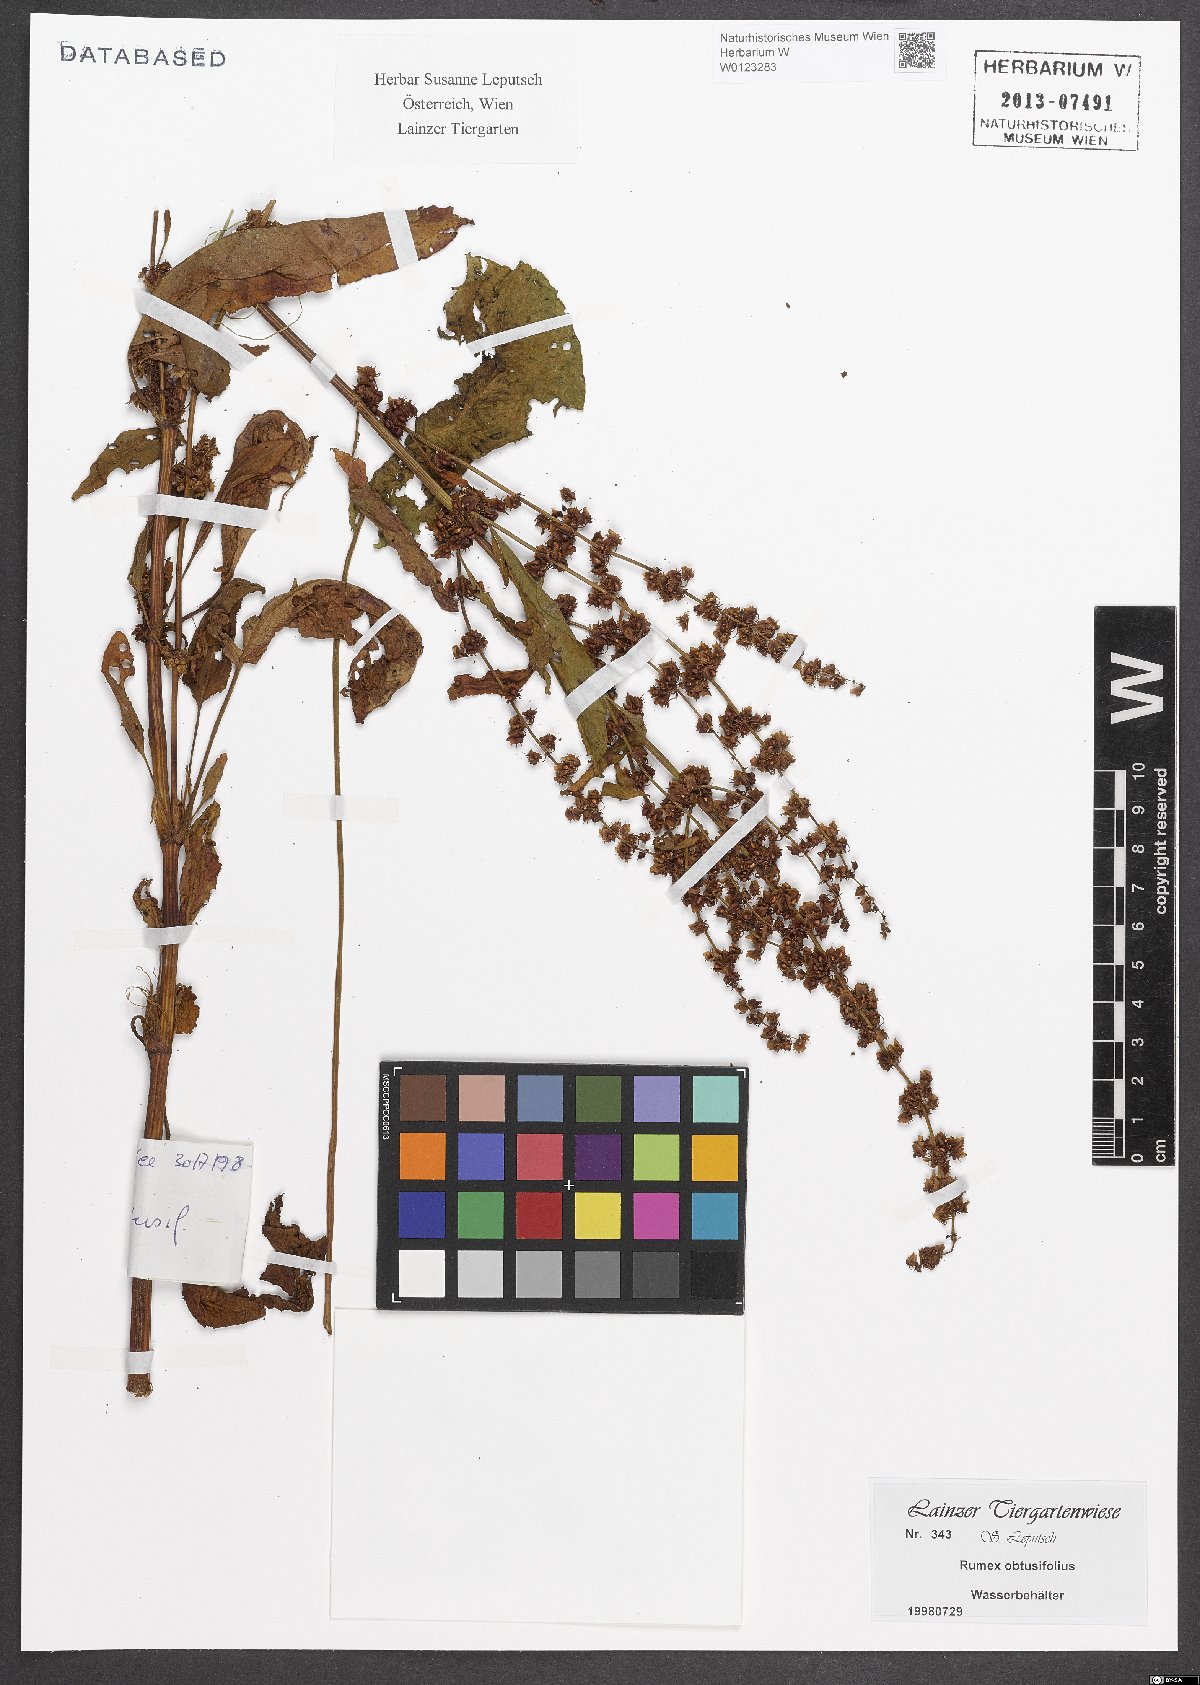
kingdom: Plantae
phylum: Tracheophyta
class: Magnoliopsida
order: Caryophyllales
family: Polygonaceae
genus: Rumex
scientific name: Rumex obtusifolius
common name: Bitter dock
